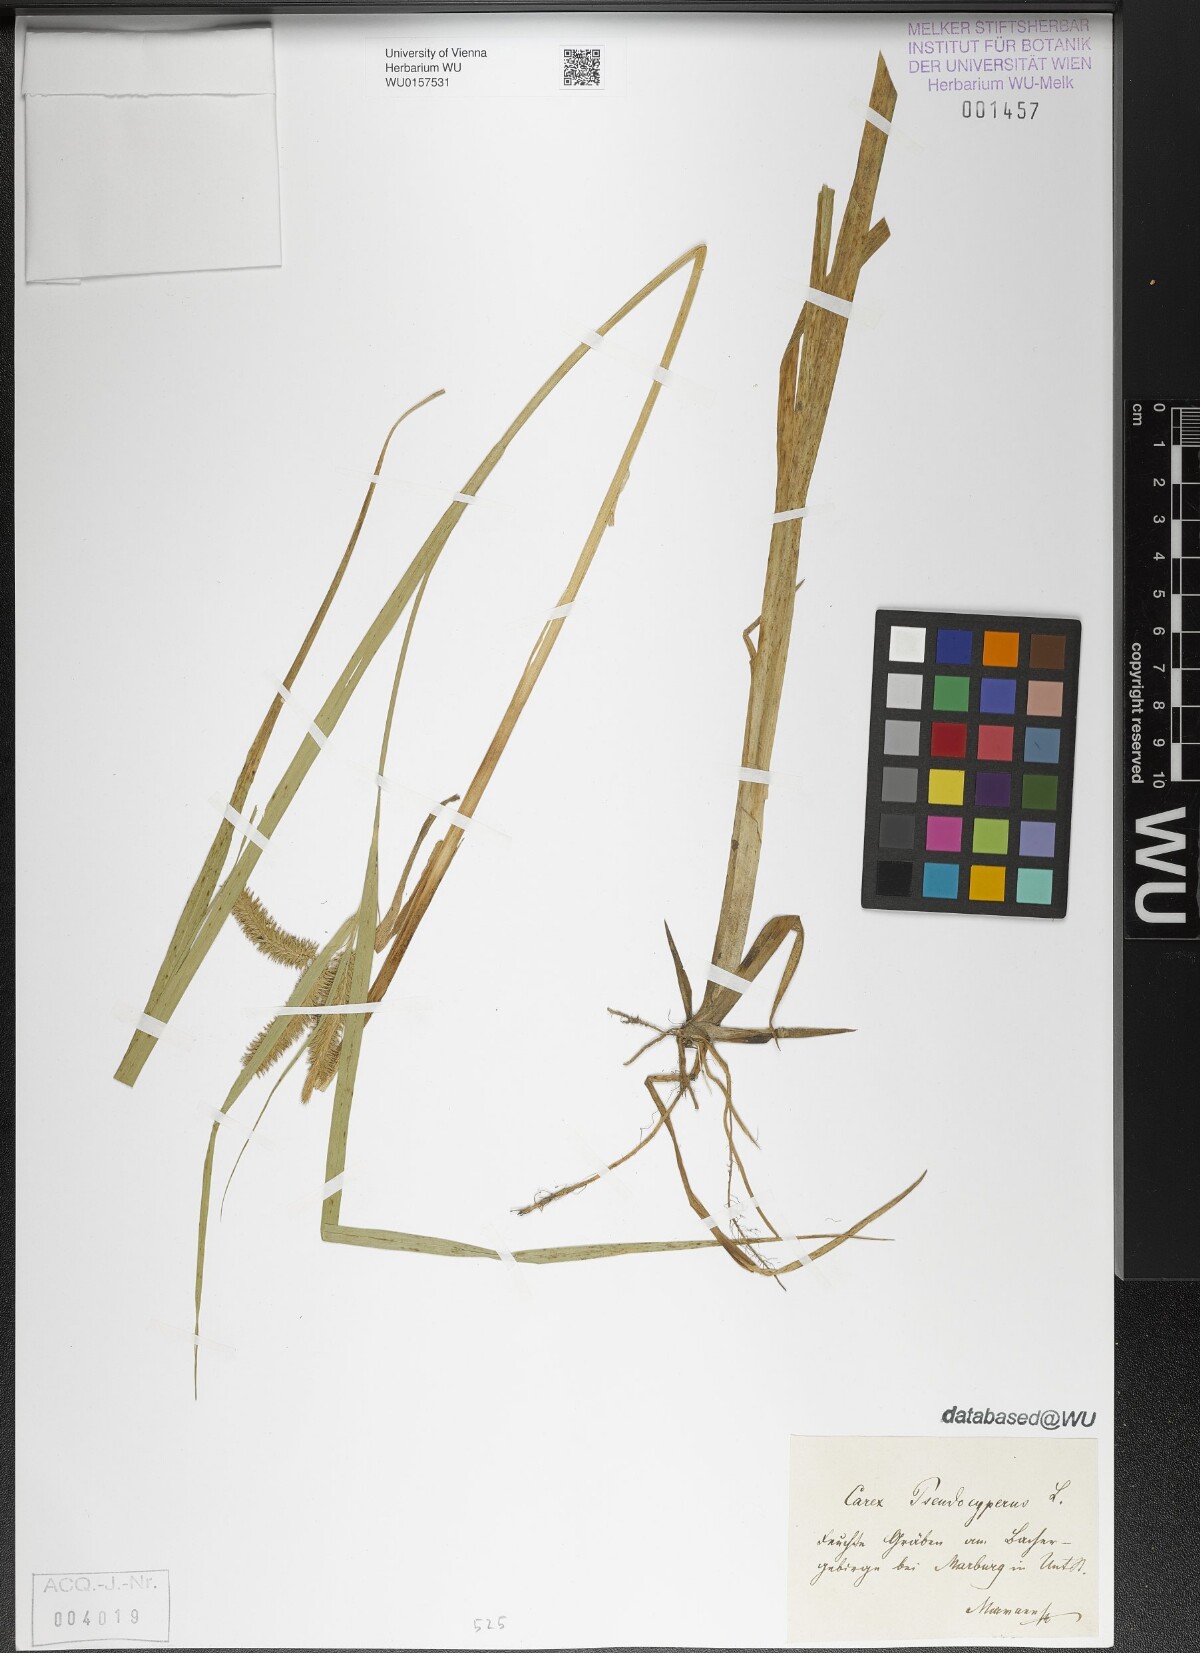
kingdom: Plantae
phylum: Tracheophyta
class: Liliopsida
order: Poales
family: Cyperaceae
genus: Carex
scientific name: Carex pseudocyperus
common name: Cyperus sedge
